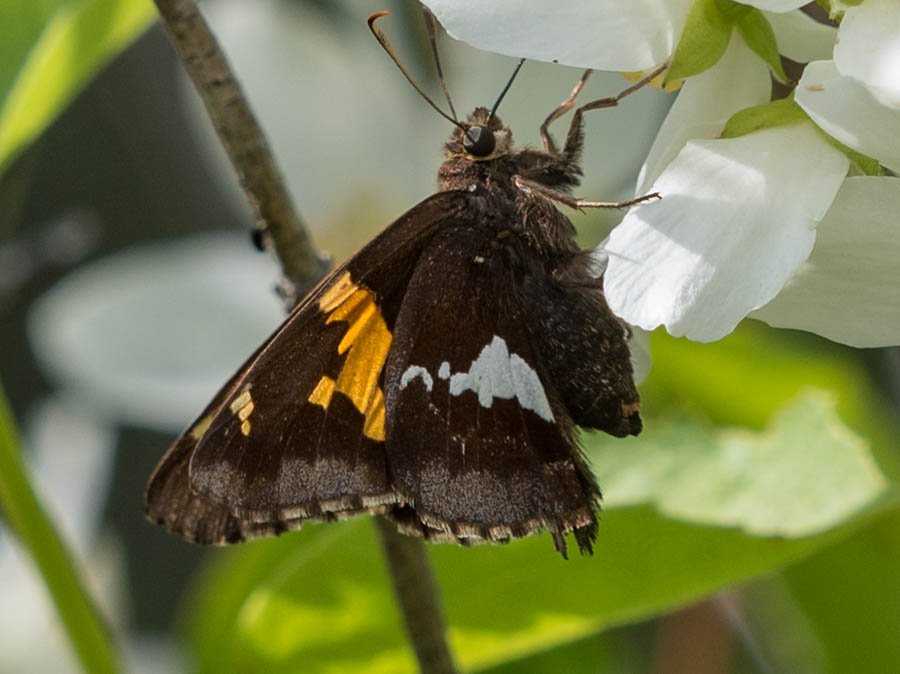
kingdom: Animalia
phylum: Arthropoda
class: Insecta
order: Lepidoptera
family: Hesperiidae
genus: Epargyreus
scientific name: Epargyreus clarus
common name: Silver-spotted Skipper
